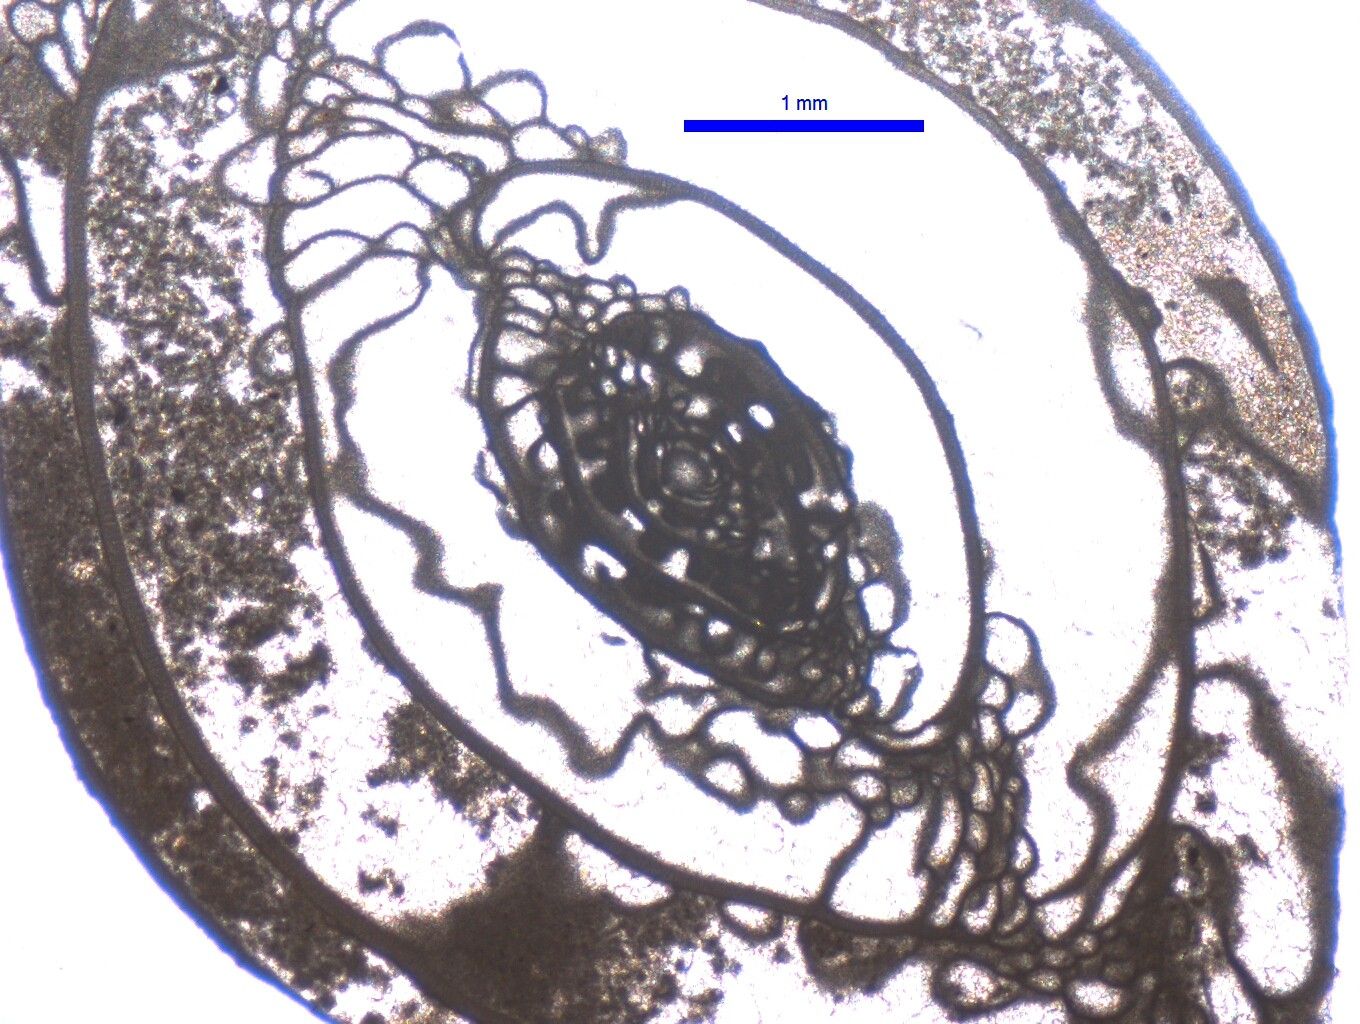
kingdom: Chromista
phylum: Foraminifera
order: Fusulinida
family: Triticitidae
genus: Pseudoschwagerina
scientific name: Pseudoschwagerina uddeni
